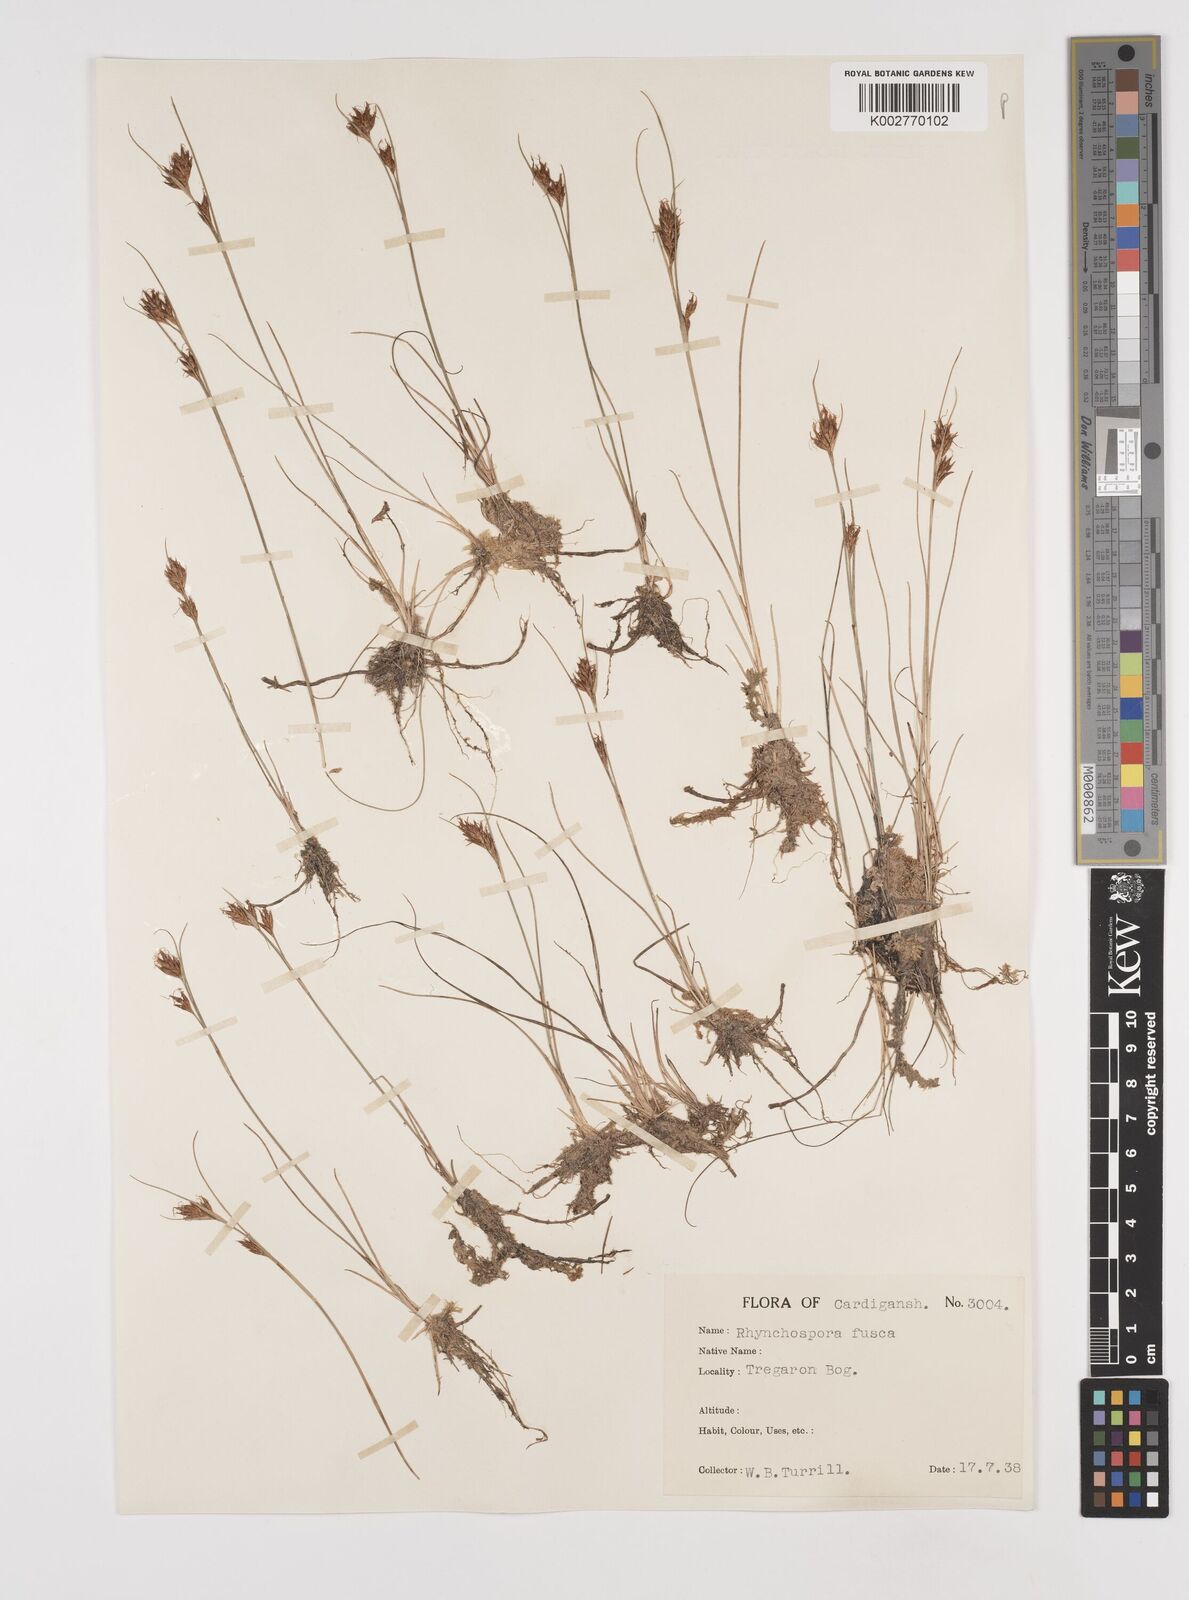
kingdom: Plantae
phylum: Tracheophyta
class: Liliopsida
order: Poales
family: Cyperaceae
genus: Rhynchospora
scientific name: Rhynchospora alba
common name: White beak-sedge
